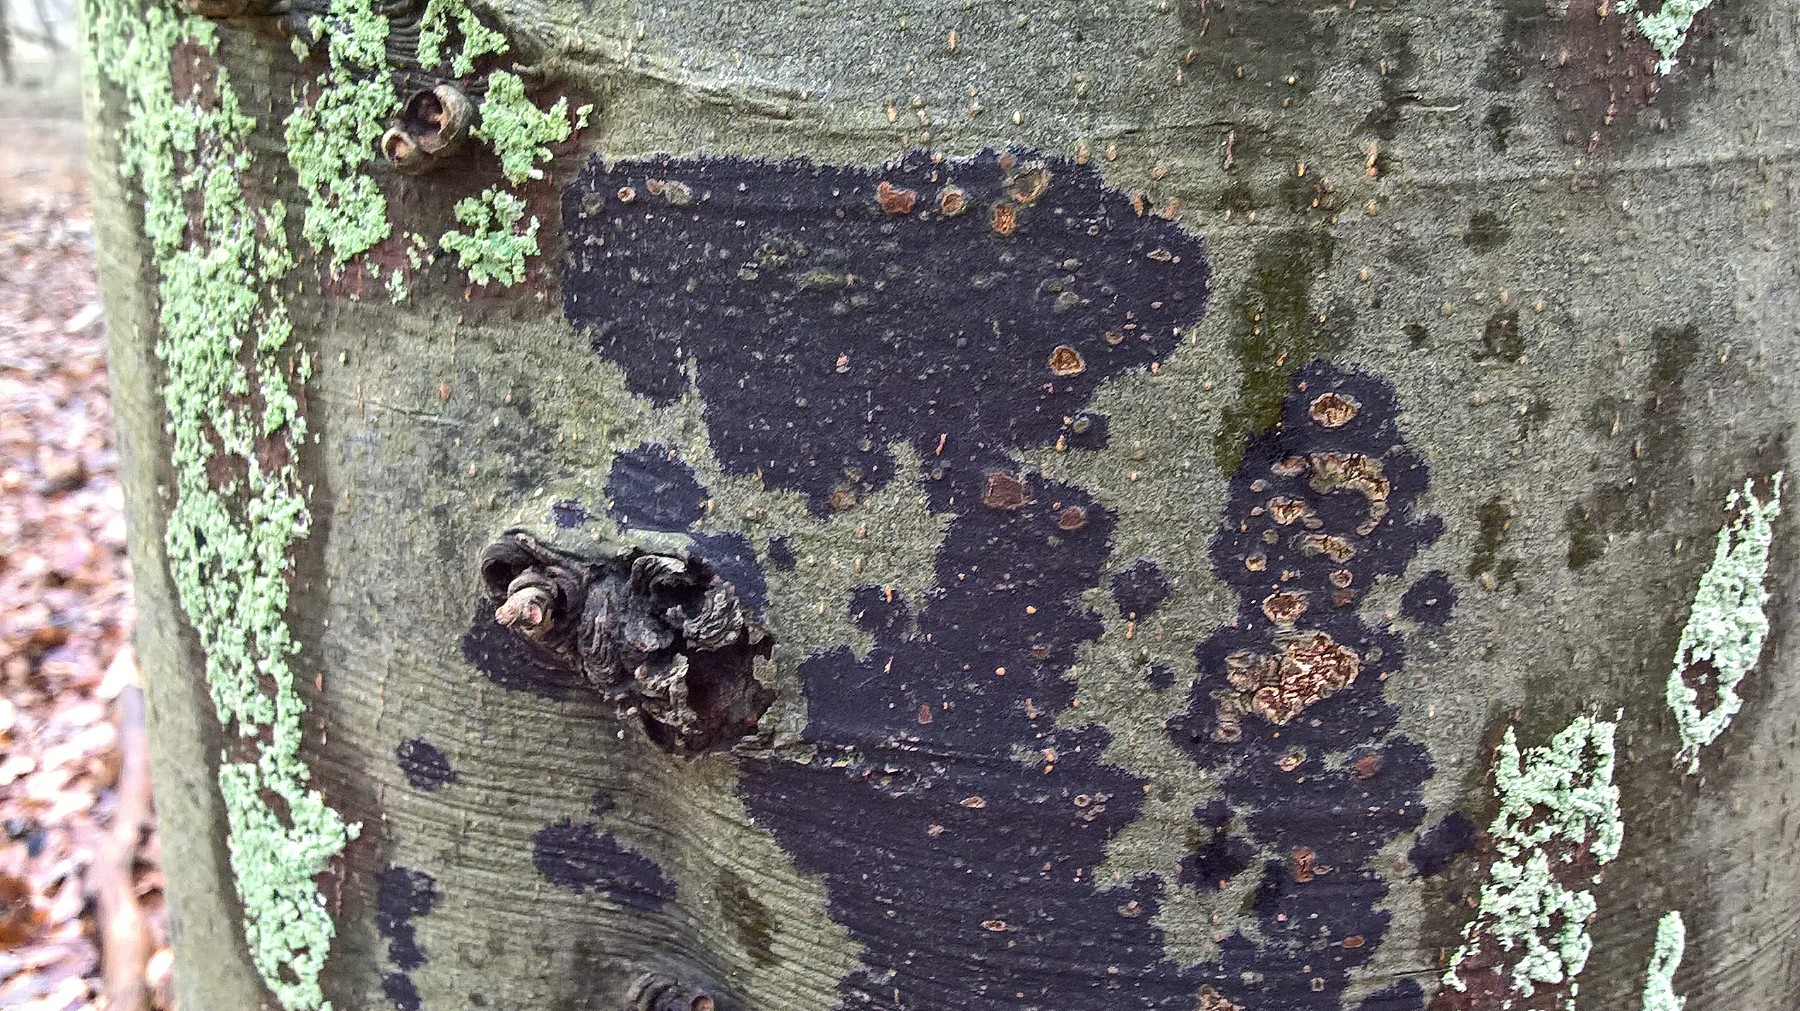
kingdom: Fungi
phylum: Ascomycota
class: Leotiomycetes
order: Rhytismatales
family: Ascodichaenaceae
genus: Ascodichaena
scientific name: Ascodichaena rugosa
